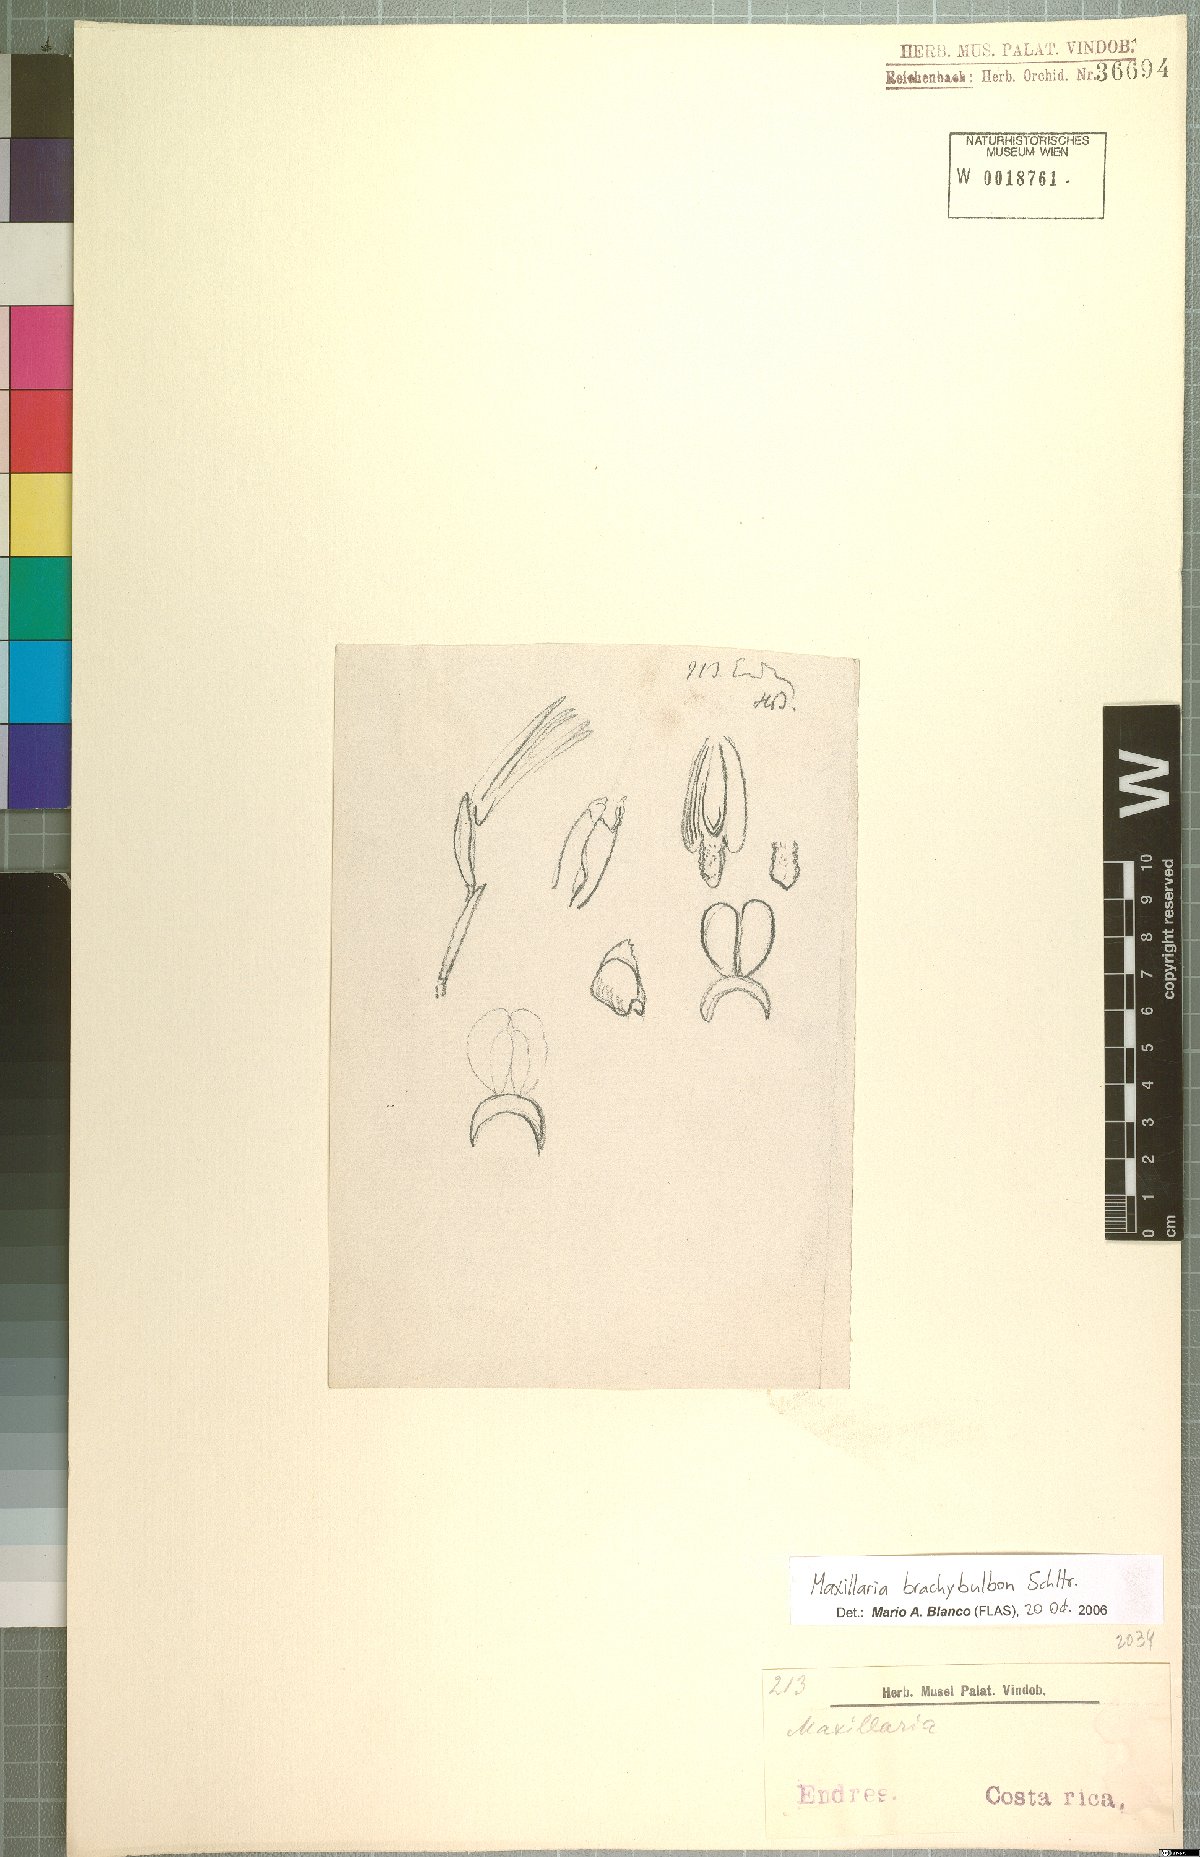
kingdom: Plantae
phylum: Tracheophyta
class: Liliopsida
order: Asparagales
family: Orchidaceae
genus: Maxillaria
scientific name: Maxillaria brachybulbon
